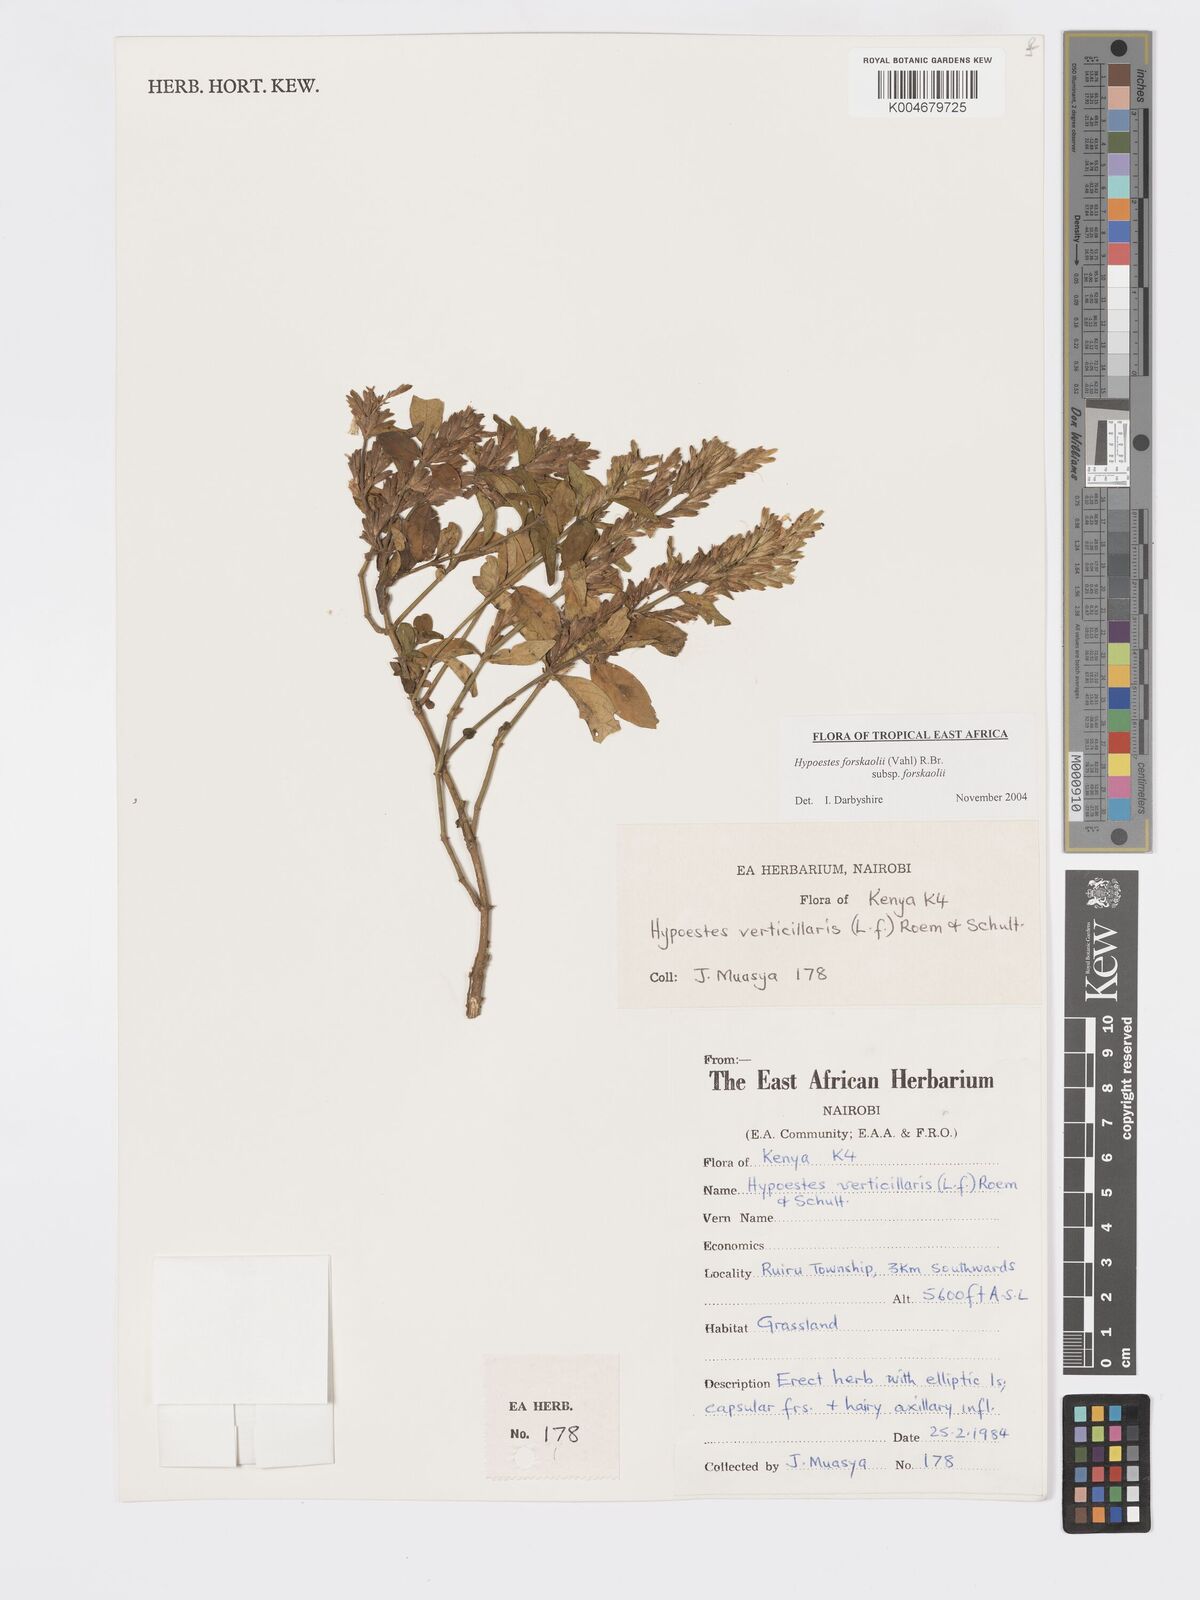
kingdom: Plantae
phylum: Tracheophyta
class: Magnoliopsida
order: Lamiales
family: Acanthaceae
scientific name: Acanthaceae
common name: Acanthaceae
